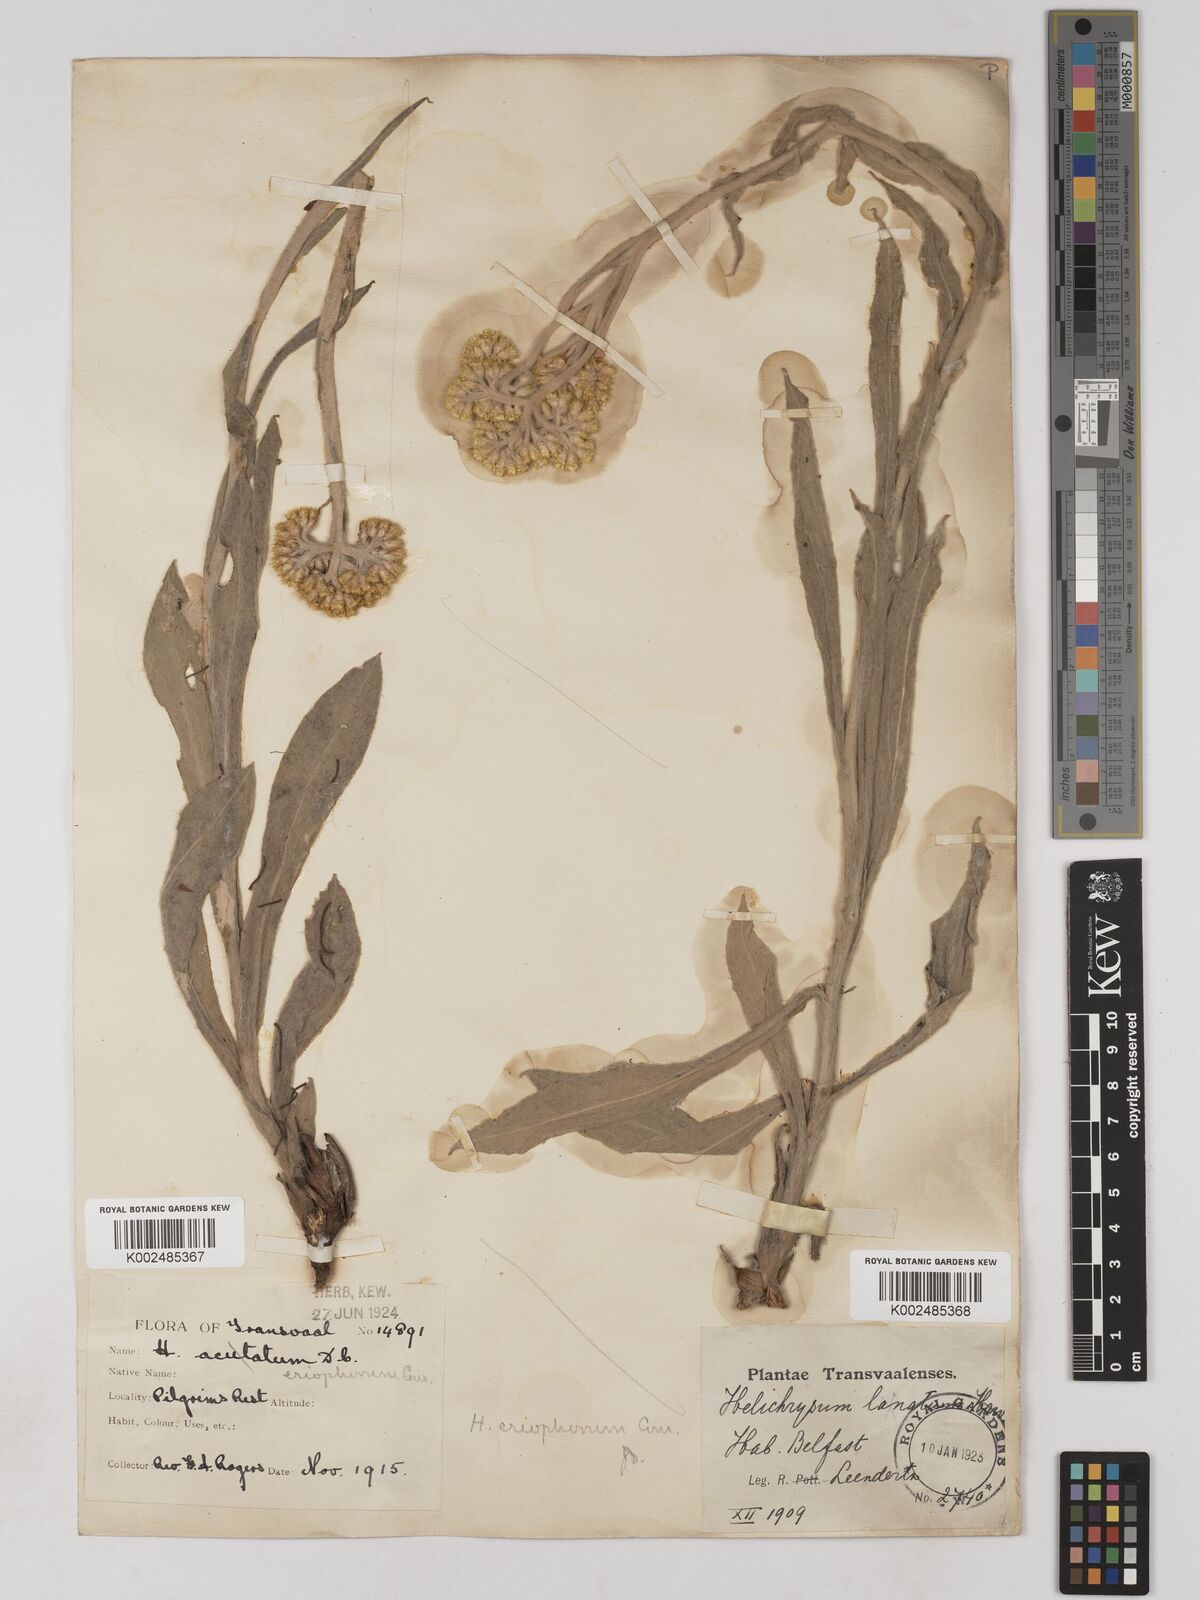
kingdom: Plantae
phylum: Tracheophyta
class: Magnoliopsida
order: Asterales
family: Asteraceae
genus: Helichrysum
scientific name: Helichrysum acutatum
